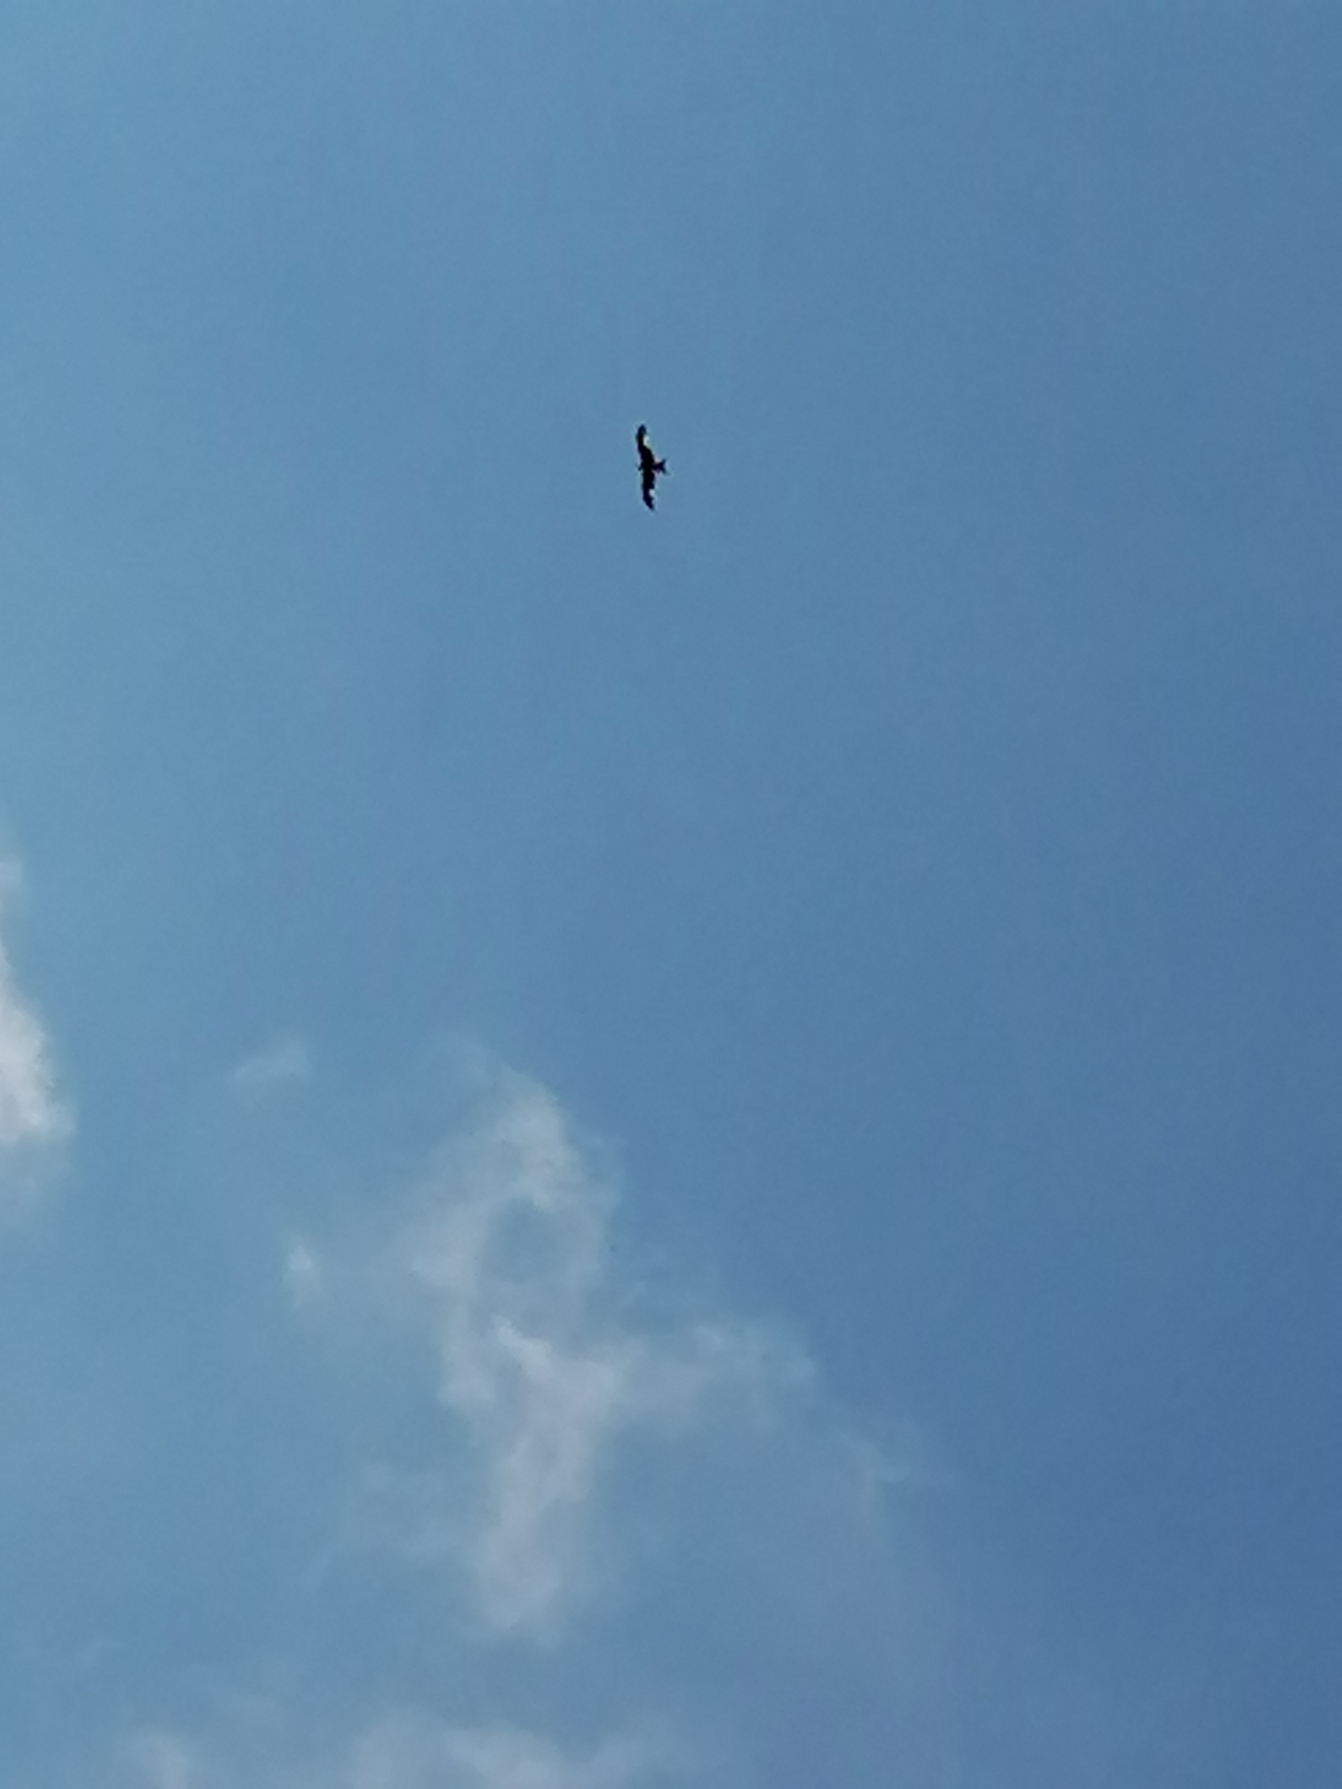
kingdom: Animalia
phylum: Chordata
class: Aves
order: Accipitriformes
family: Accipitridae
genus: Milvus
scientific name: Milvus milvus
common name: Rød glente
